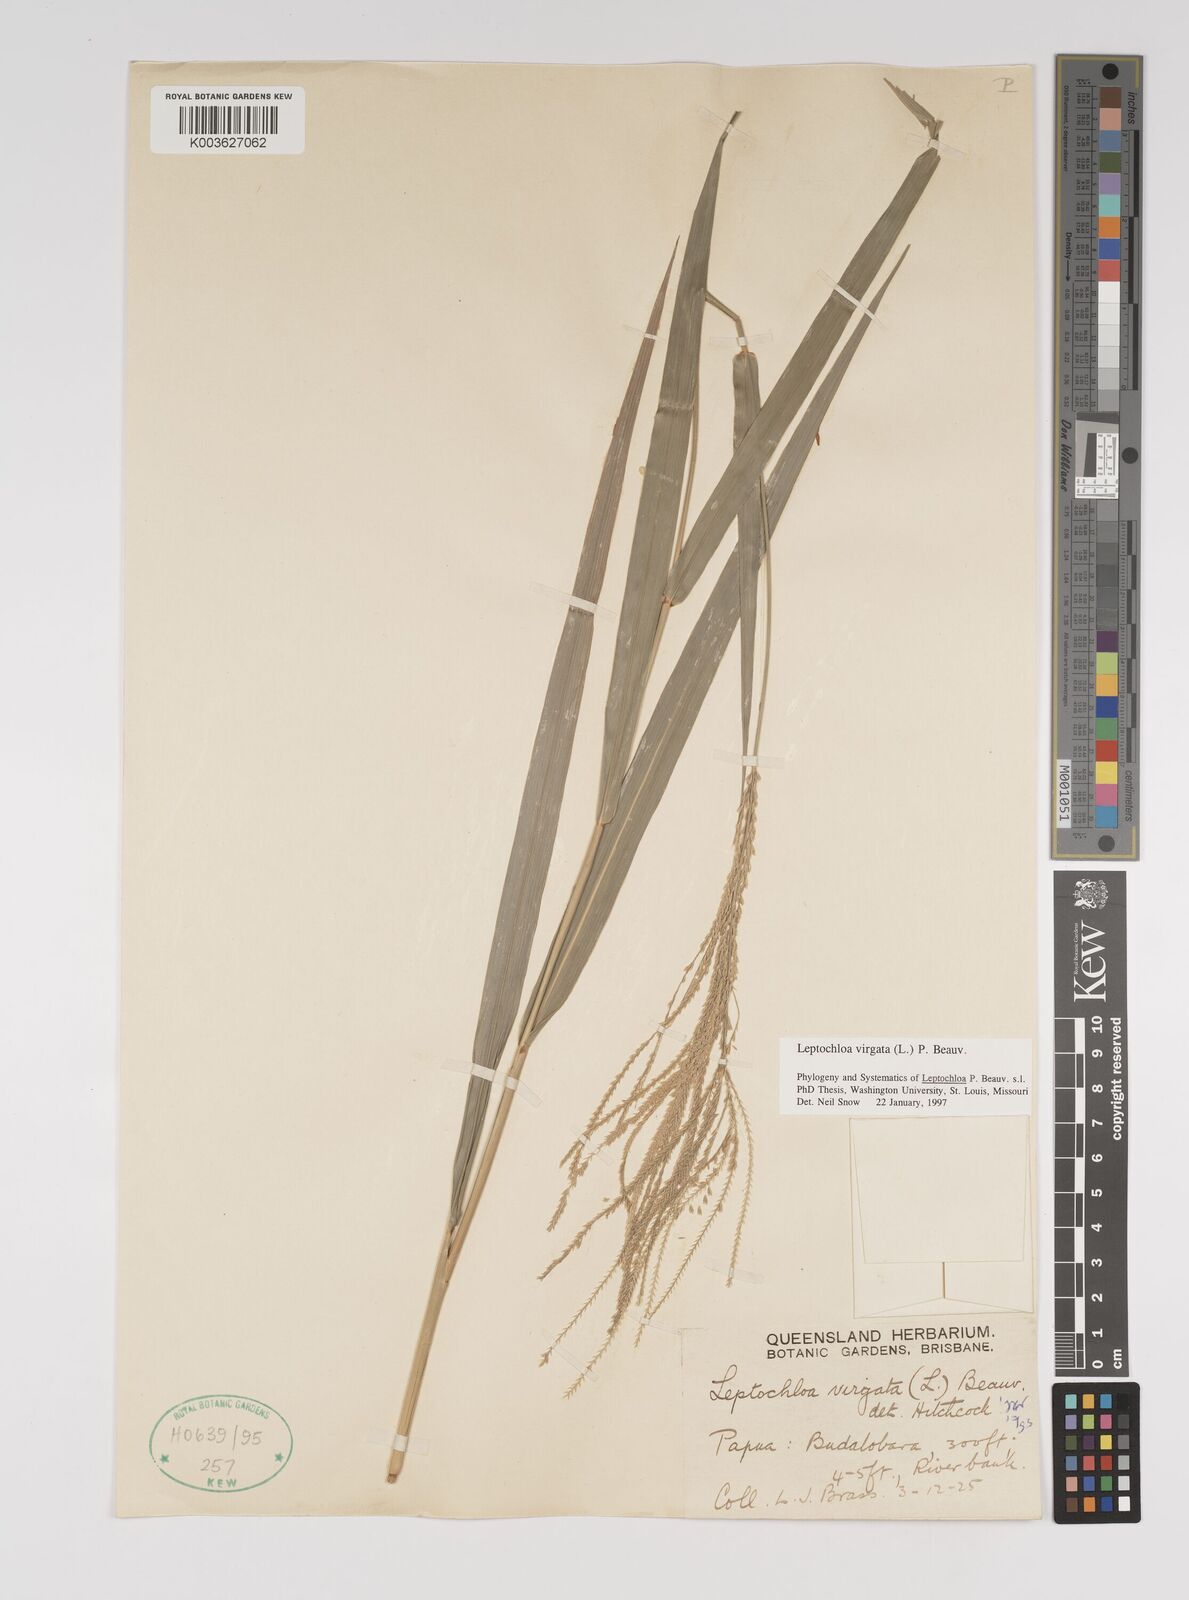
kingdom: Plantae
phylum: Tracheophyta
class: Liliopsida
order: Poales
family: Poaceae
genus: Leptochloa
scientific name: Leptochloa
